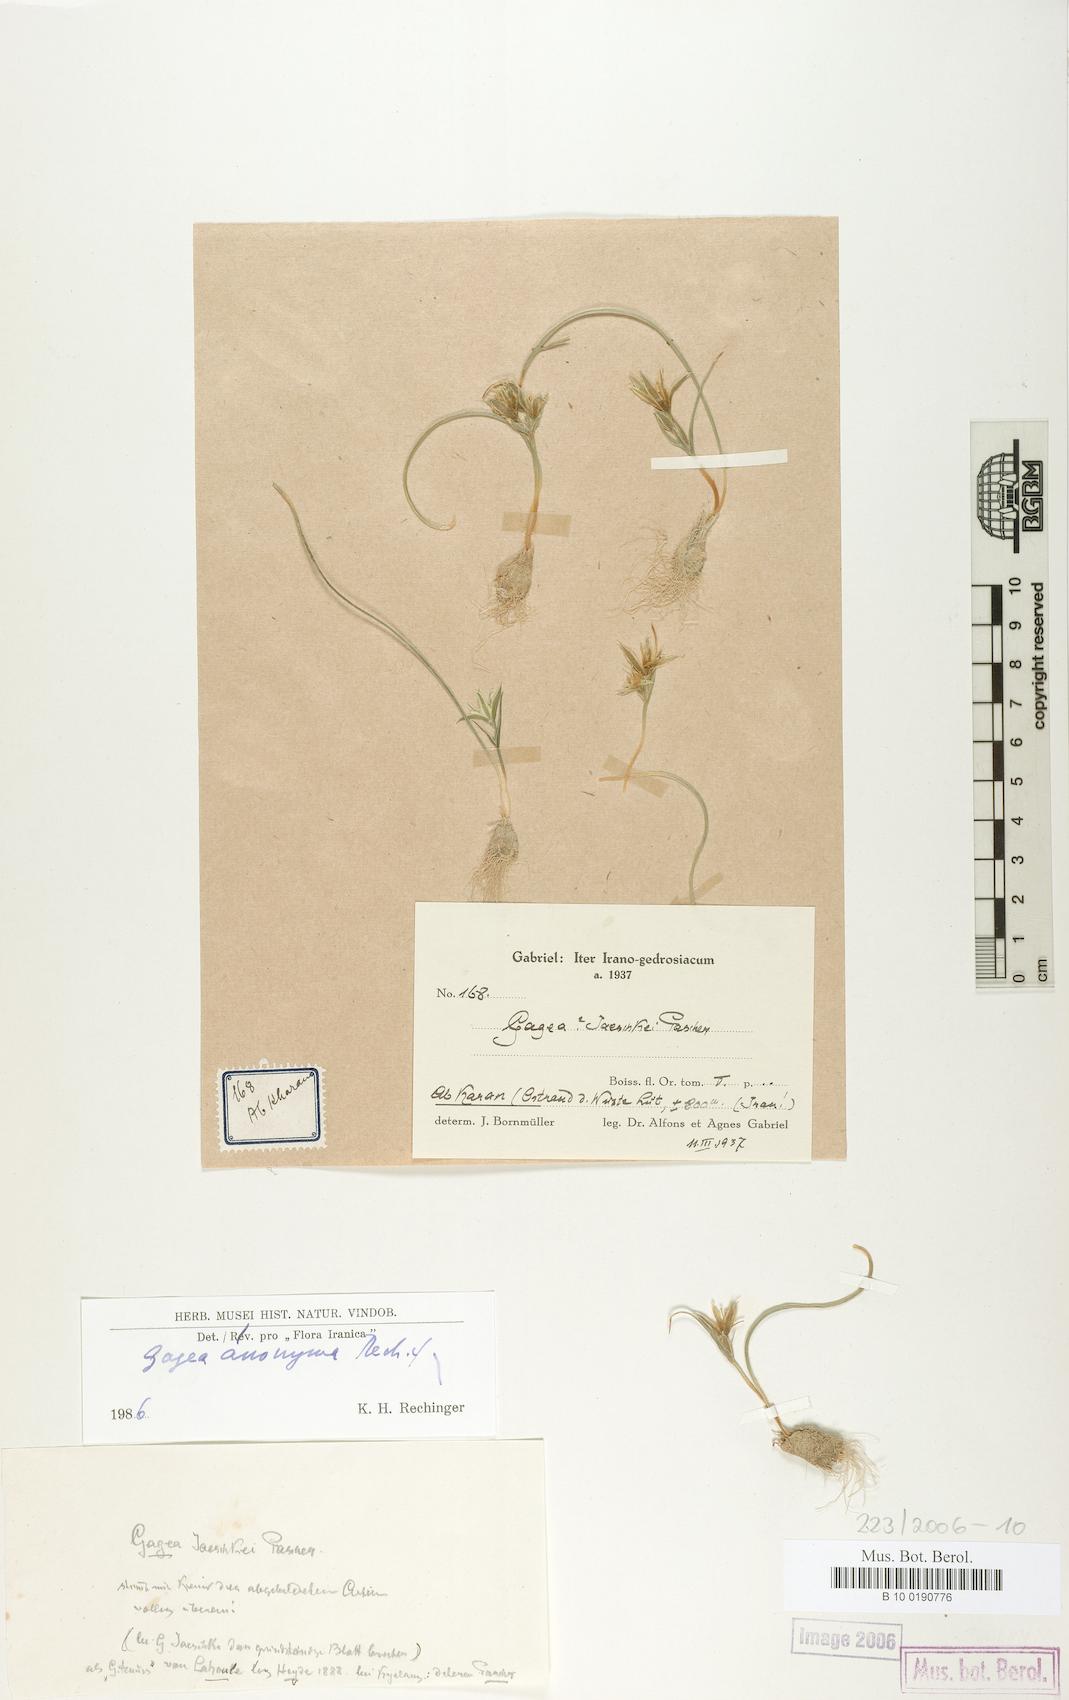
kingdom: Plantae
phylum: Tracheophyta
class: Liliopsida
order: Liliales
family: Liliaceae
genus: Gagea
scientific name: Gagea setifolia
